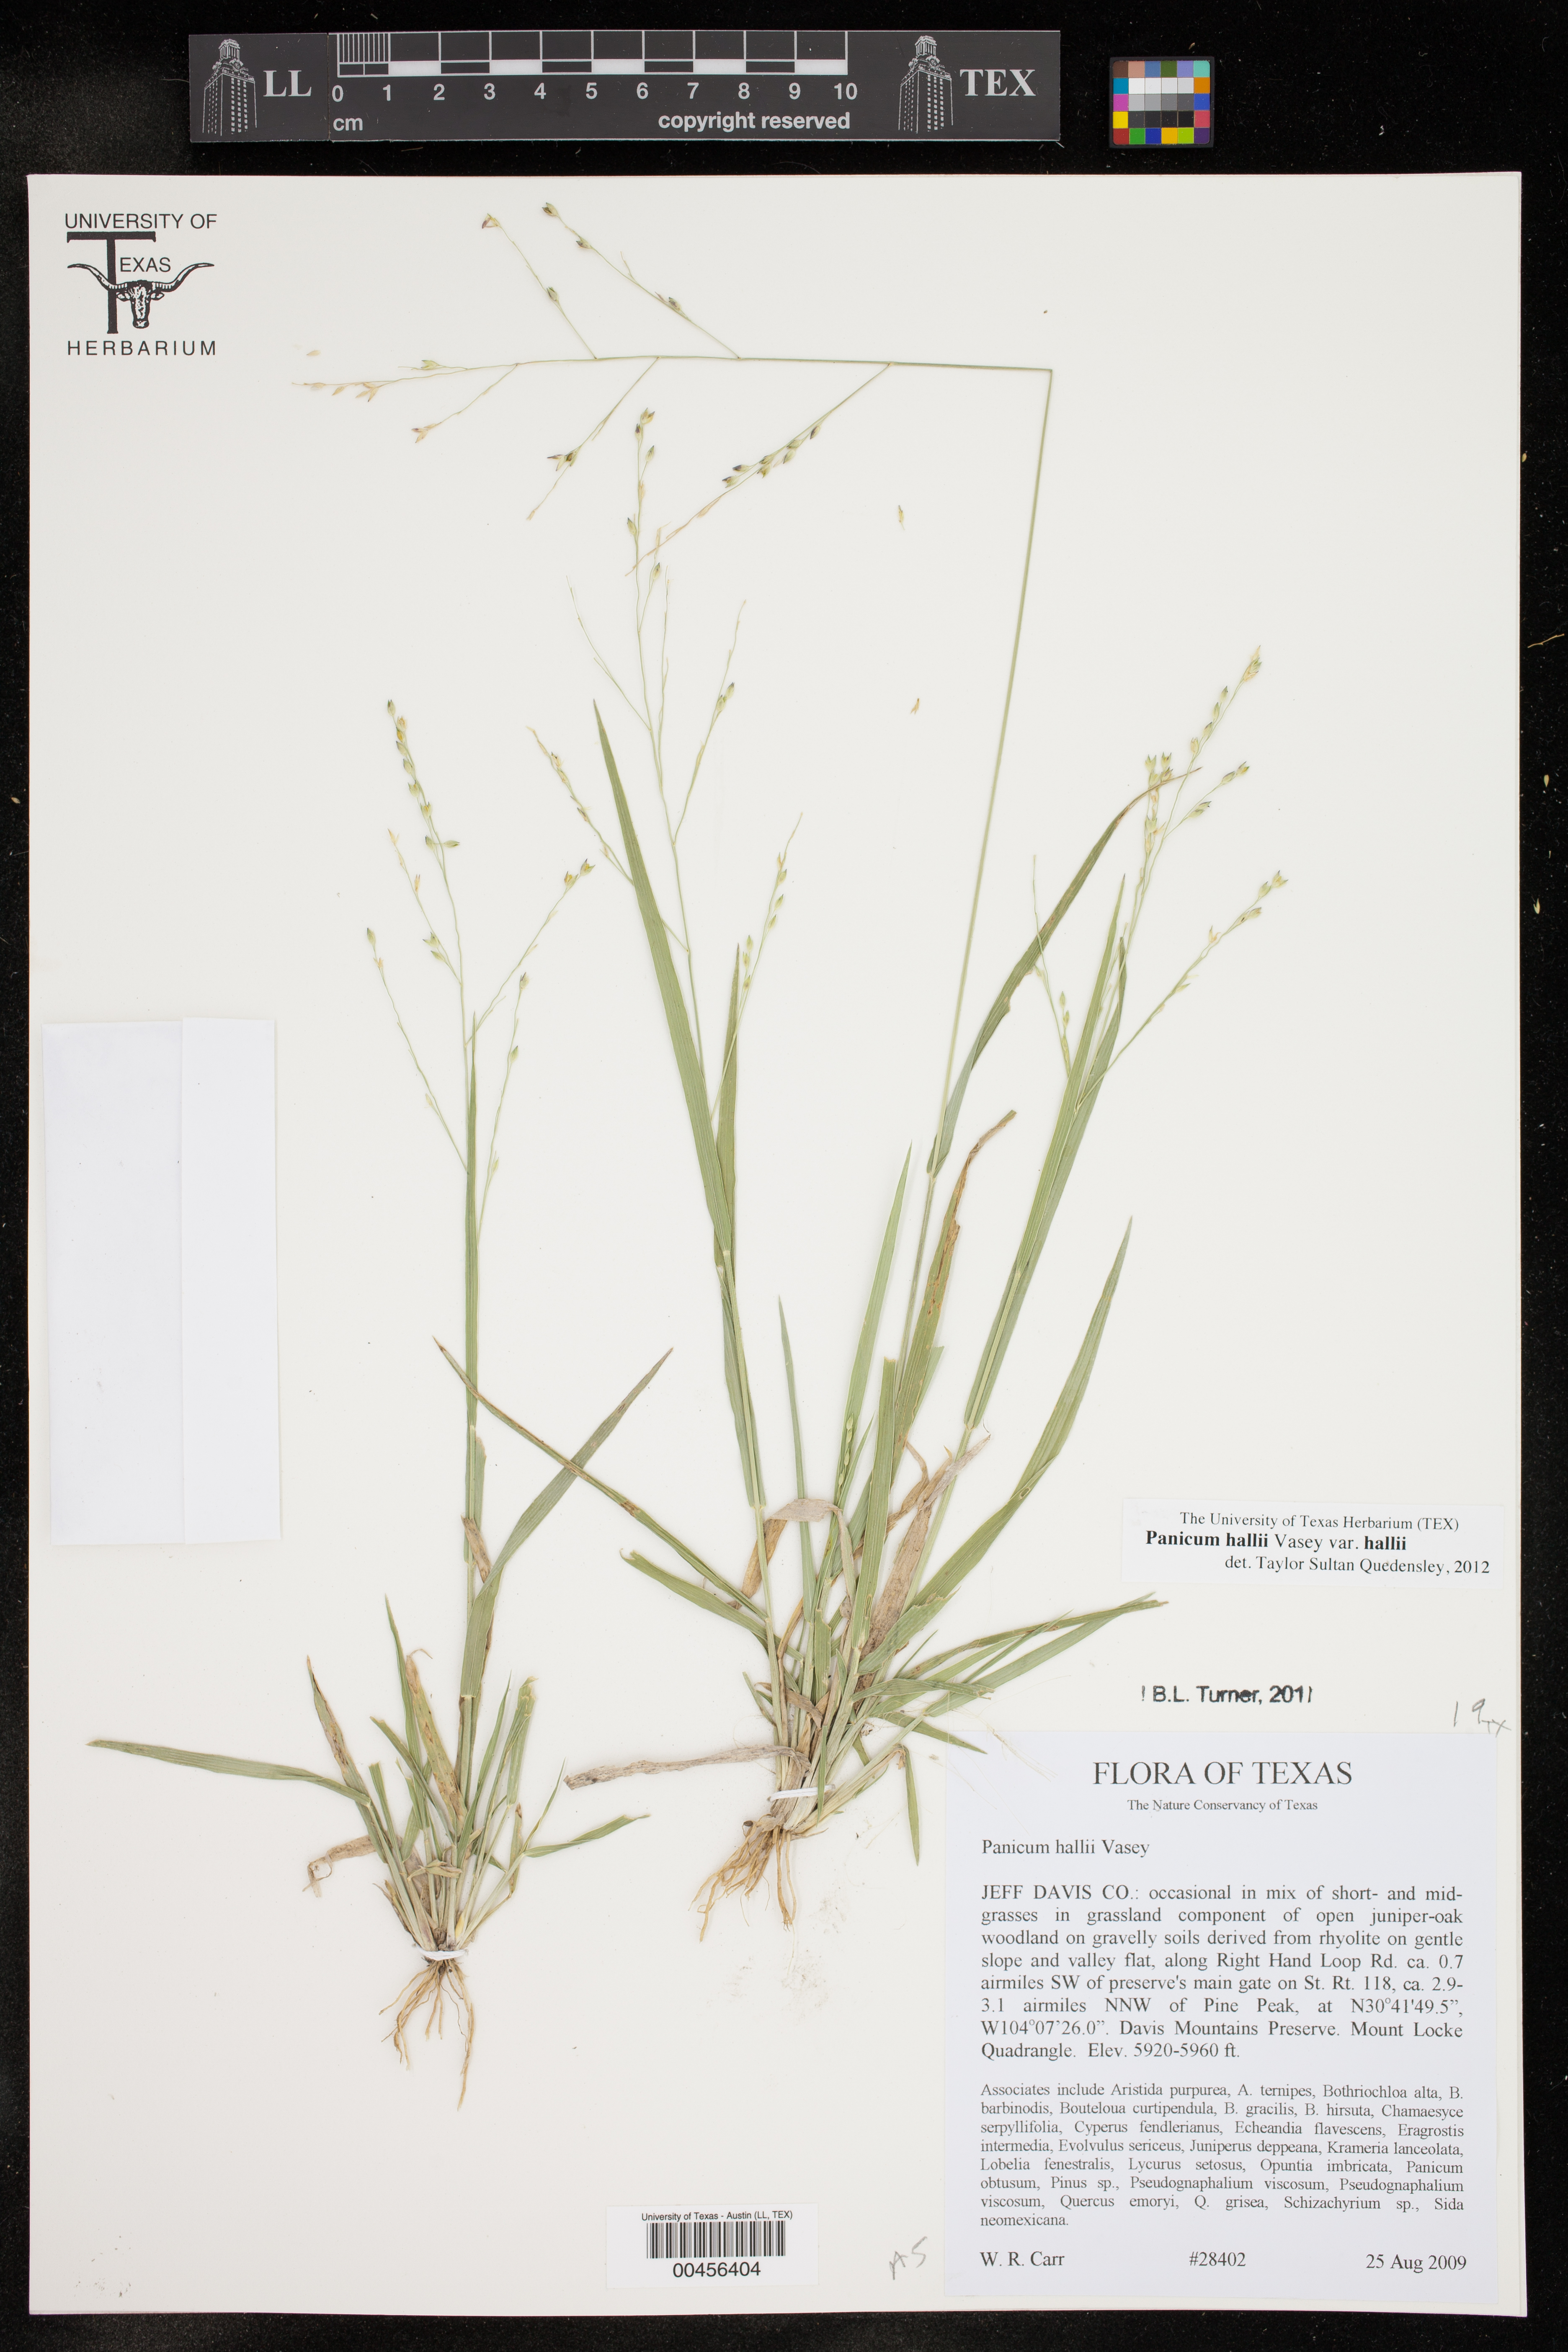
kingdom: Plantae
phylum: Tracheophyta
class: Liliopsida
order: Poales
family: Poaceae
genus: Panicum
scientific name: Panicum hallii
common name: Hall's witchgrass
